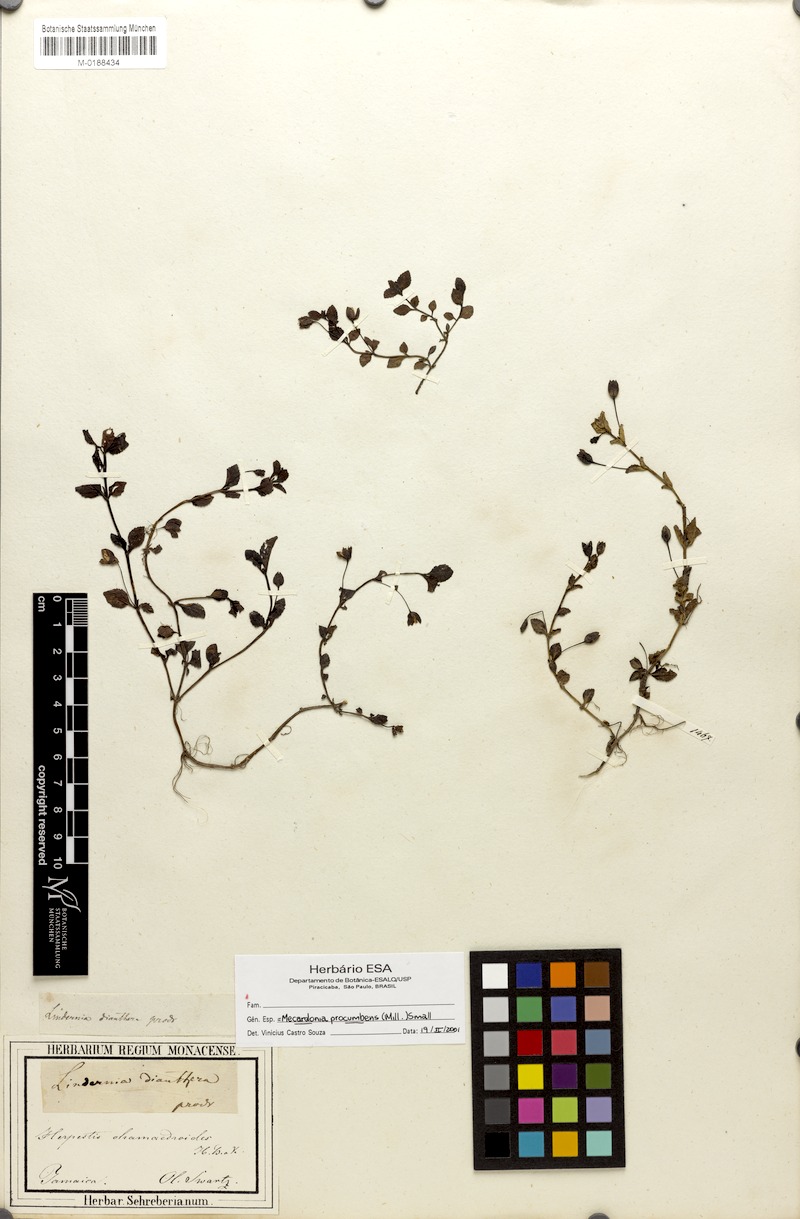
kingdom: Plantae
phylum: Tracheophyta
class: Magnoliopsida
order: Lamiales
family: Plantaginaceae
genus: Mecardonia
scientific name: Mecardonia procumbens
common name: Baby jump-up
